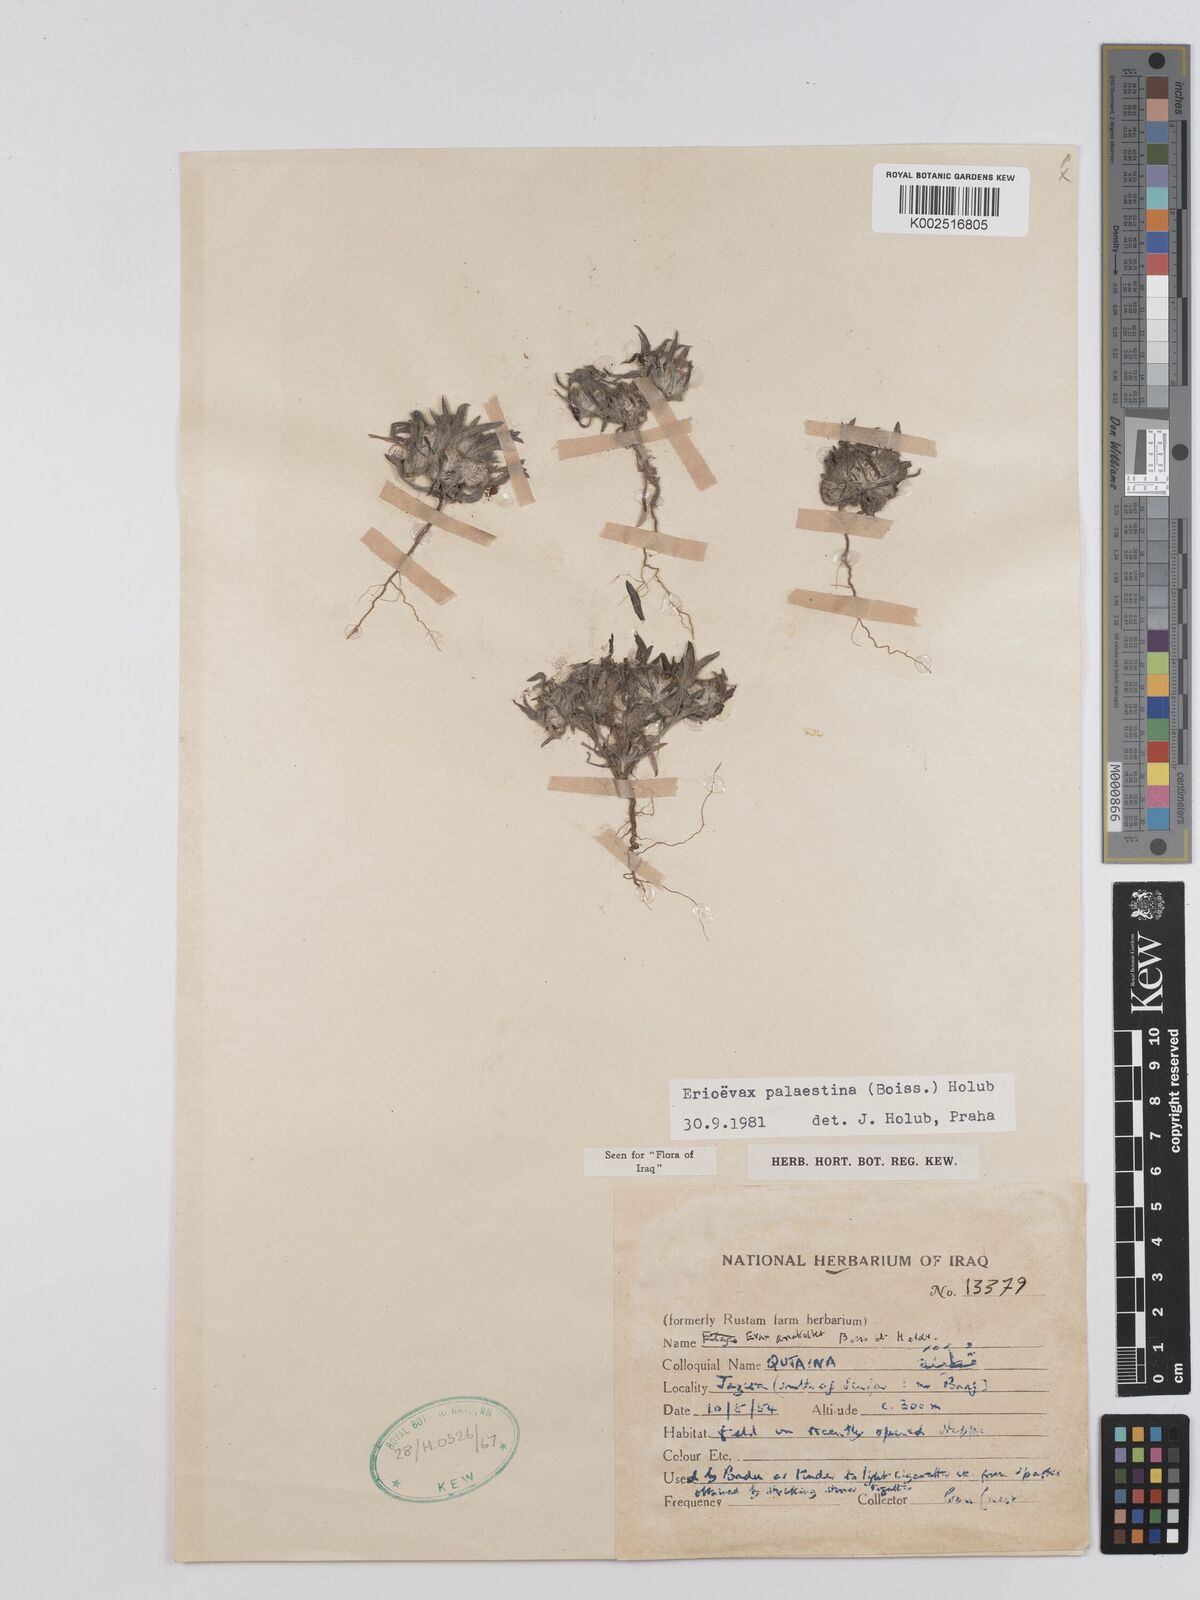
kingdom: Plantae
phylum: Tracheophyta
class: Magnoliopsida
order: Asterales
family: Asteraceae
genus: Filago
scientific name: Filago palaestina
